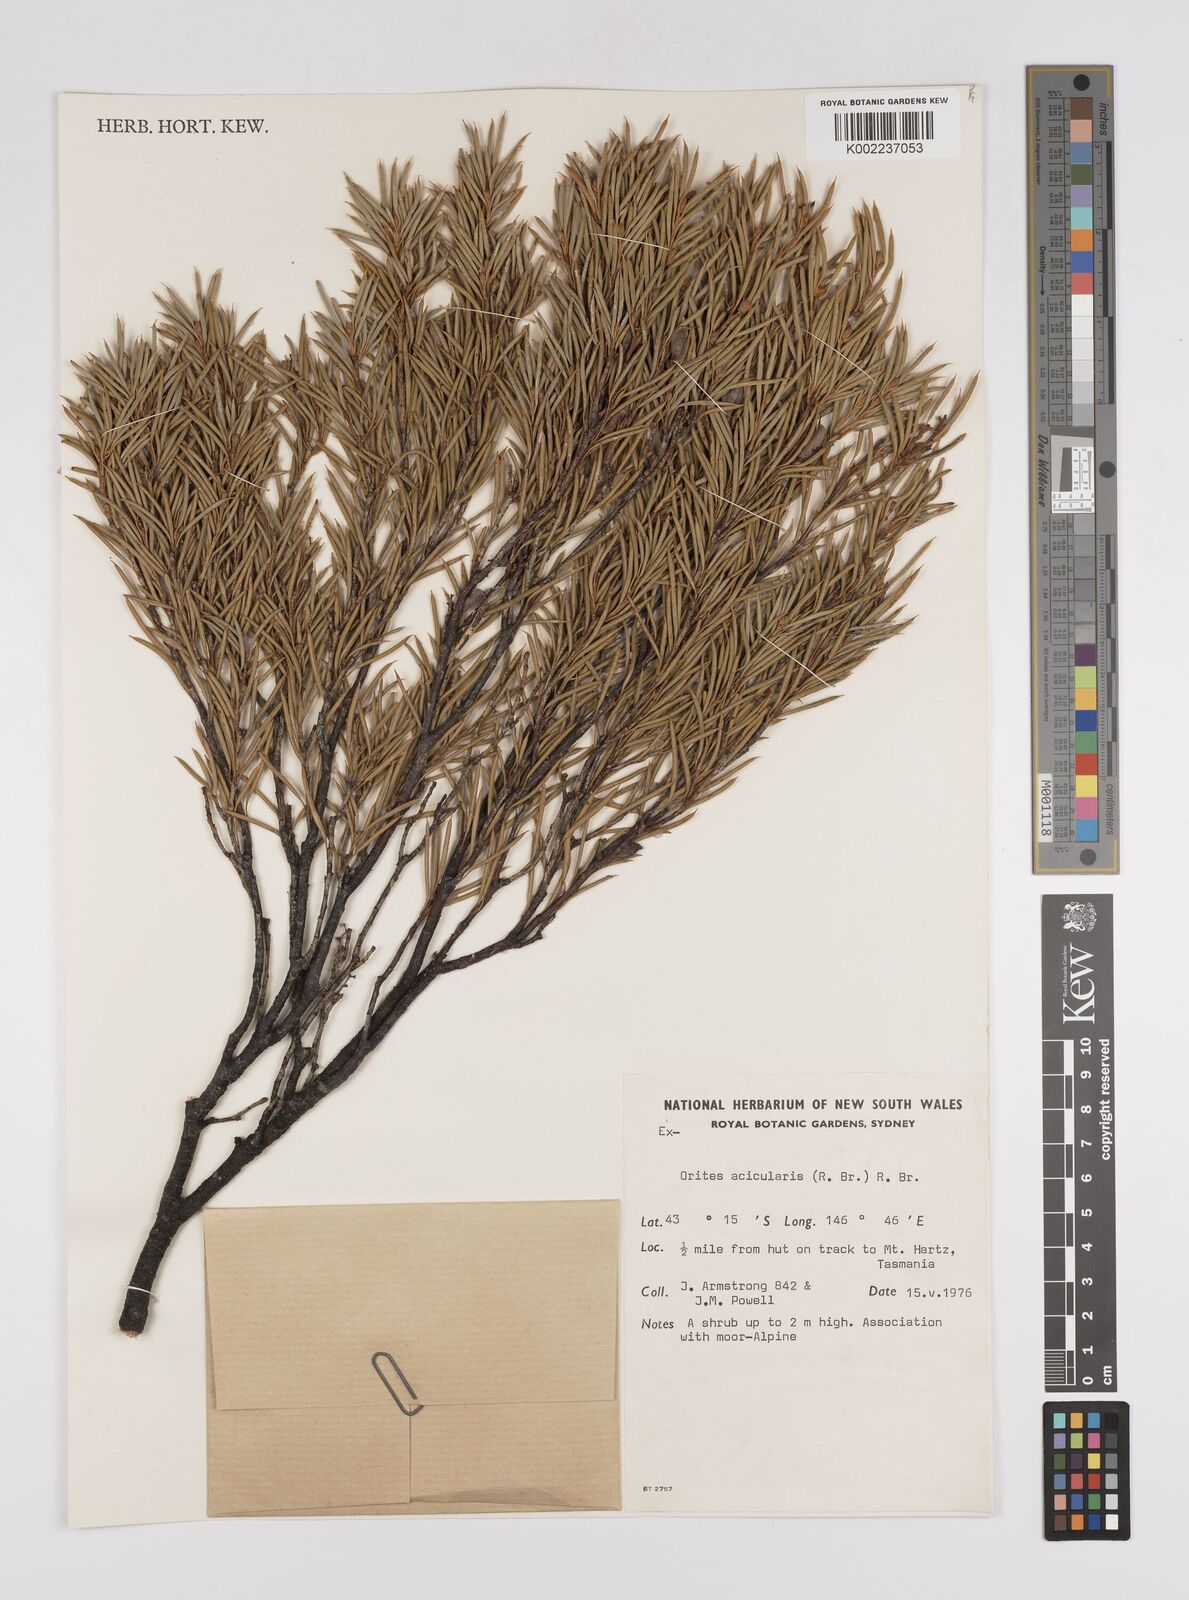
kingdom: Plantae
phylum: Tracheophyta
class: Magnoliopsida
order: Proteales
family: Proteaceae
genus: Orites
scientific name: Orites acicularis
